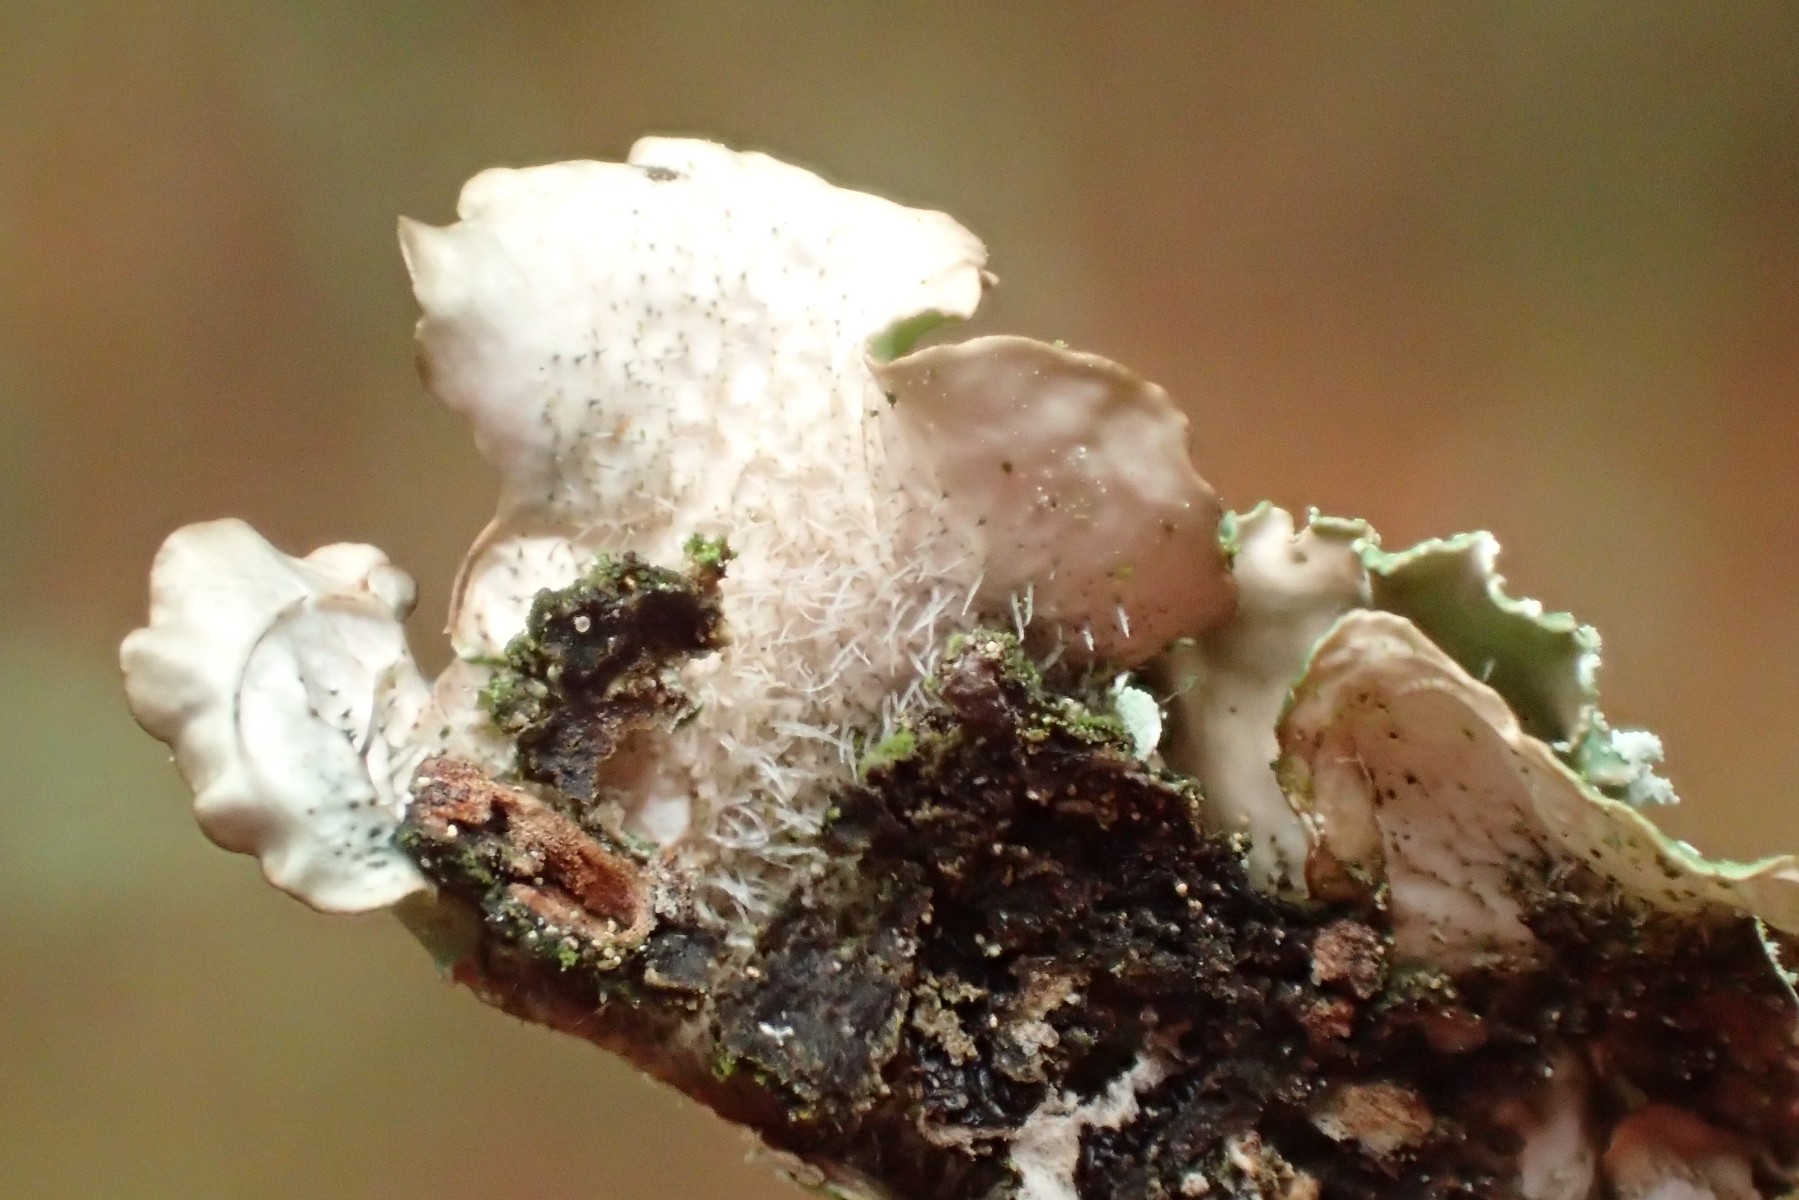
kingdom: Fungi
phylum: Ascomycota
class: Lecanoromycetes
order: Lecanorales
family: Parmeliaceae
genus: Punctelia
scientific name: Punctelia subrudecta
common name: punkt-skållav
